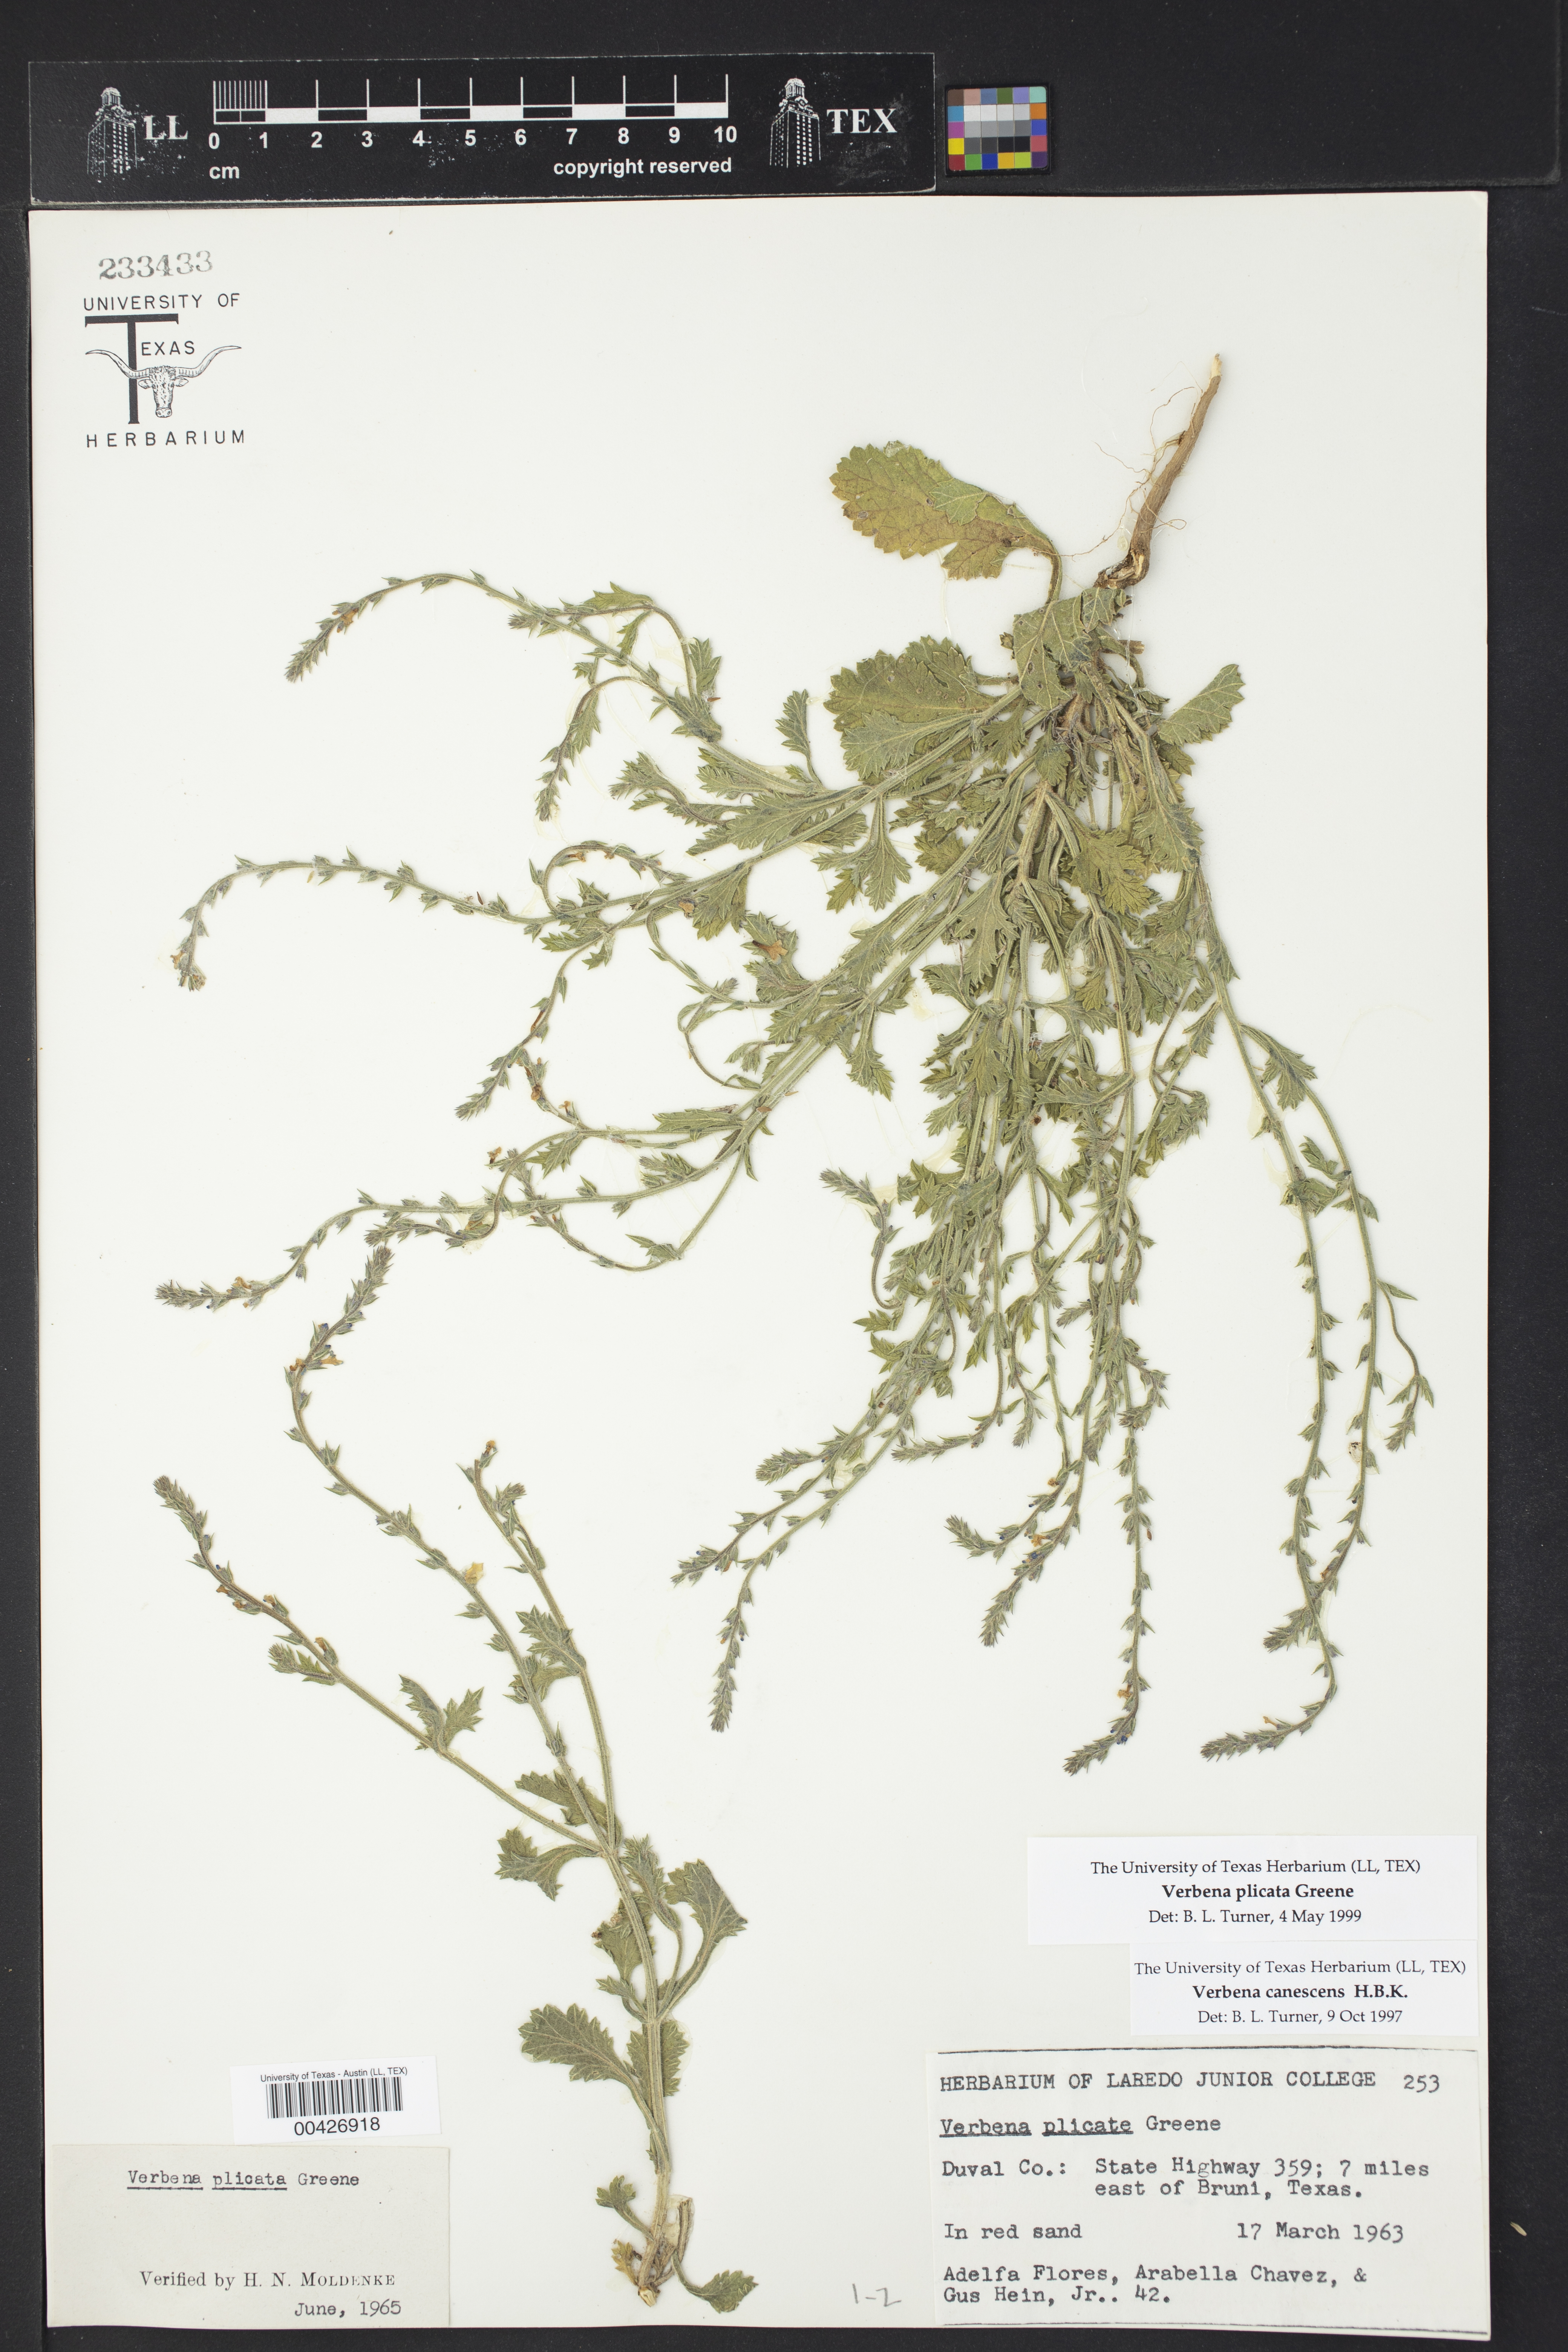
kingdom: Plantae
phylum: Tracheophyta
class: Magnoliopsida
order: Lamiales
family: Verbenaceae
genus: Verbena
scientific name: Verbena plicata
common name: Fan-leaf vervain
